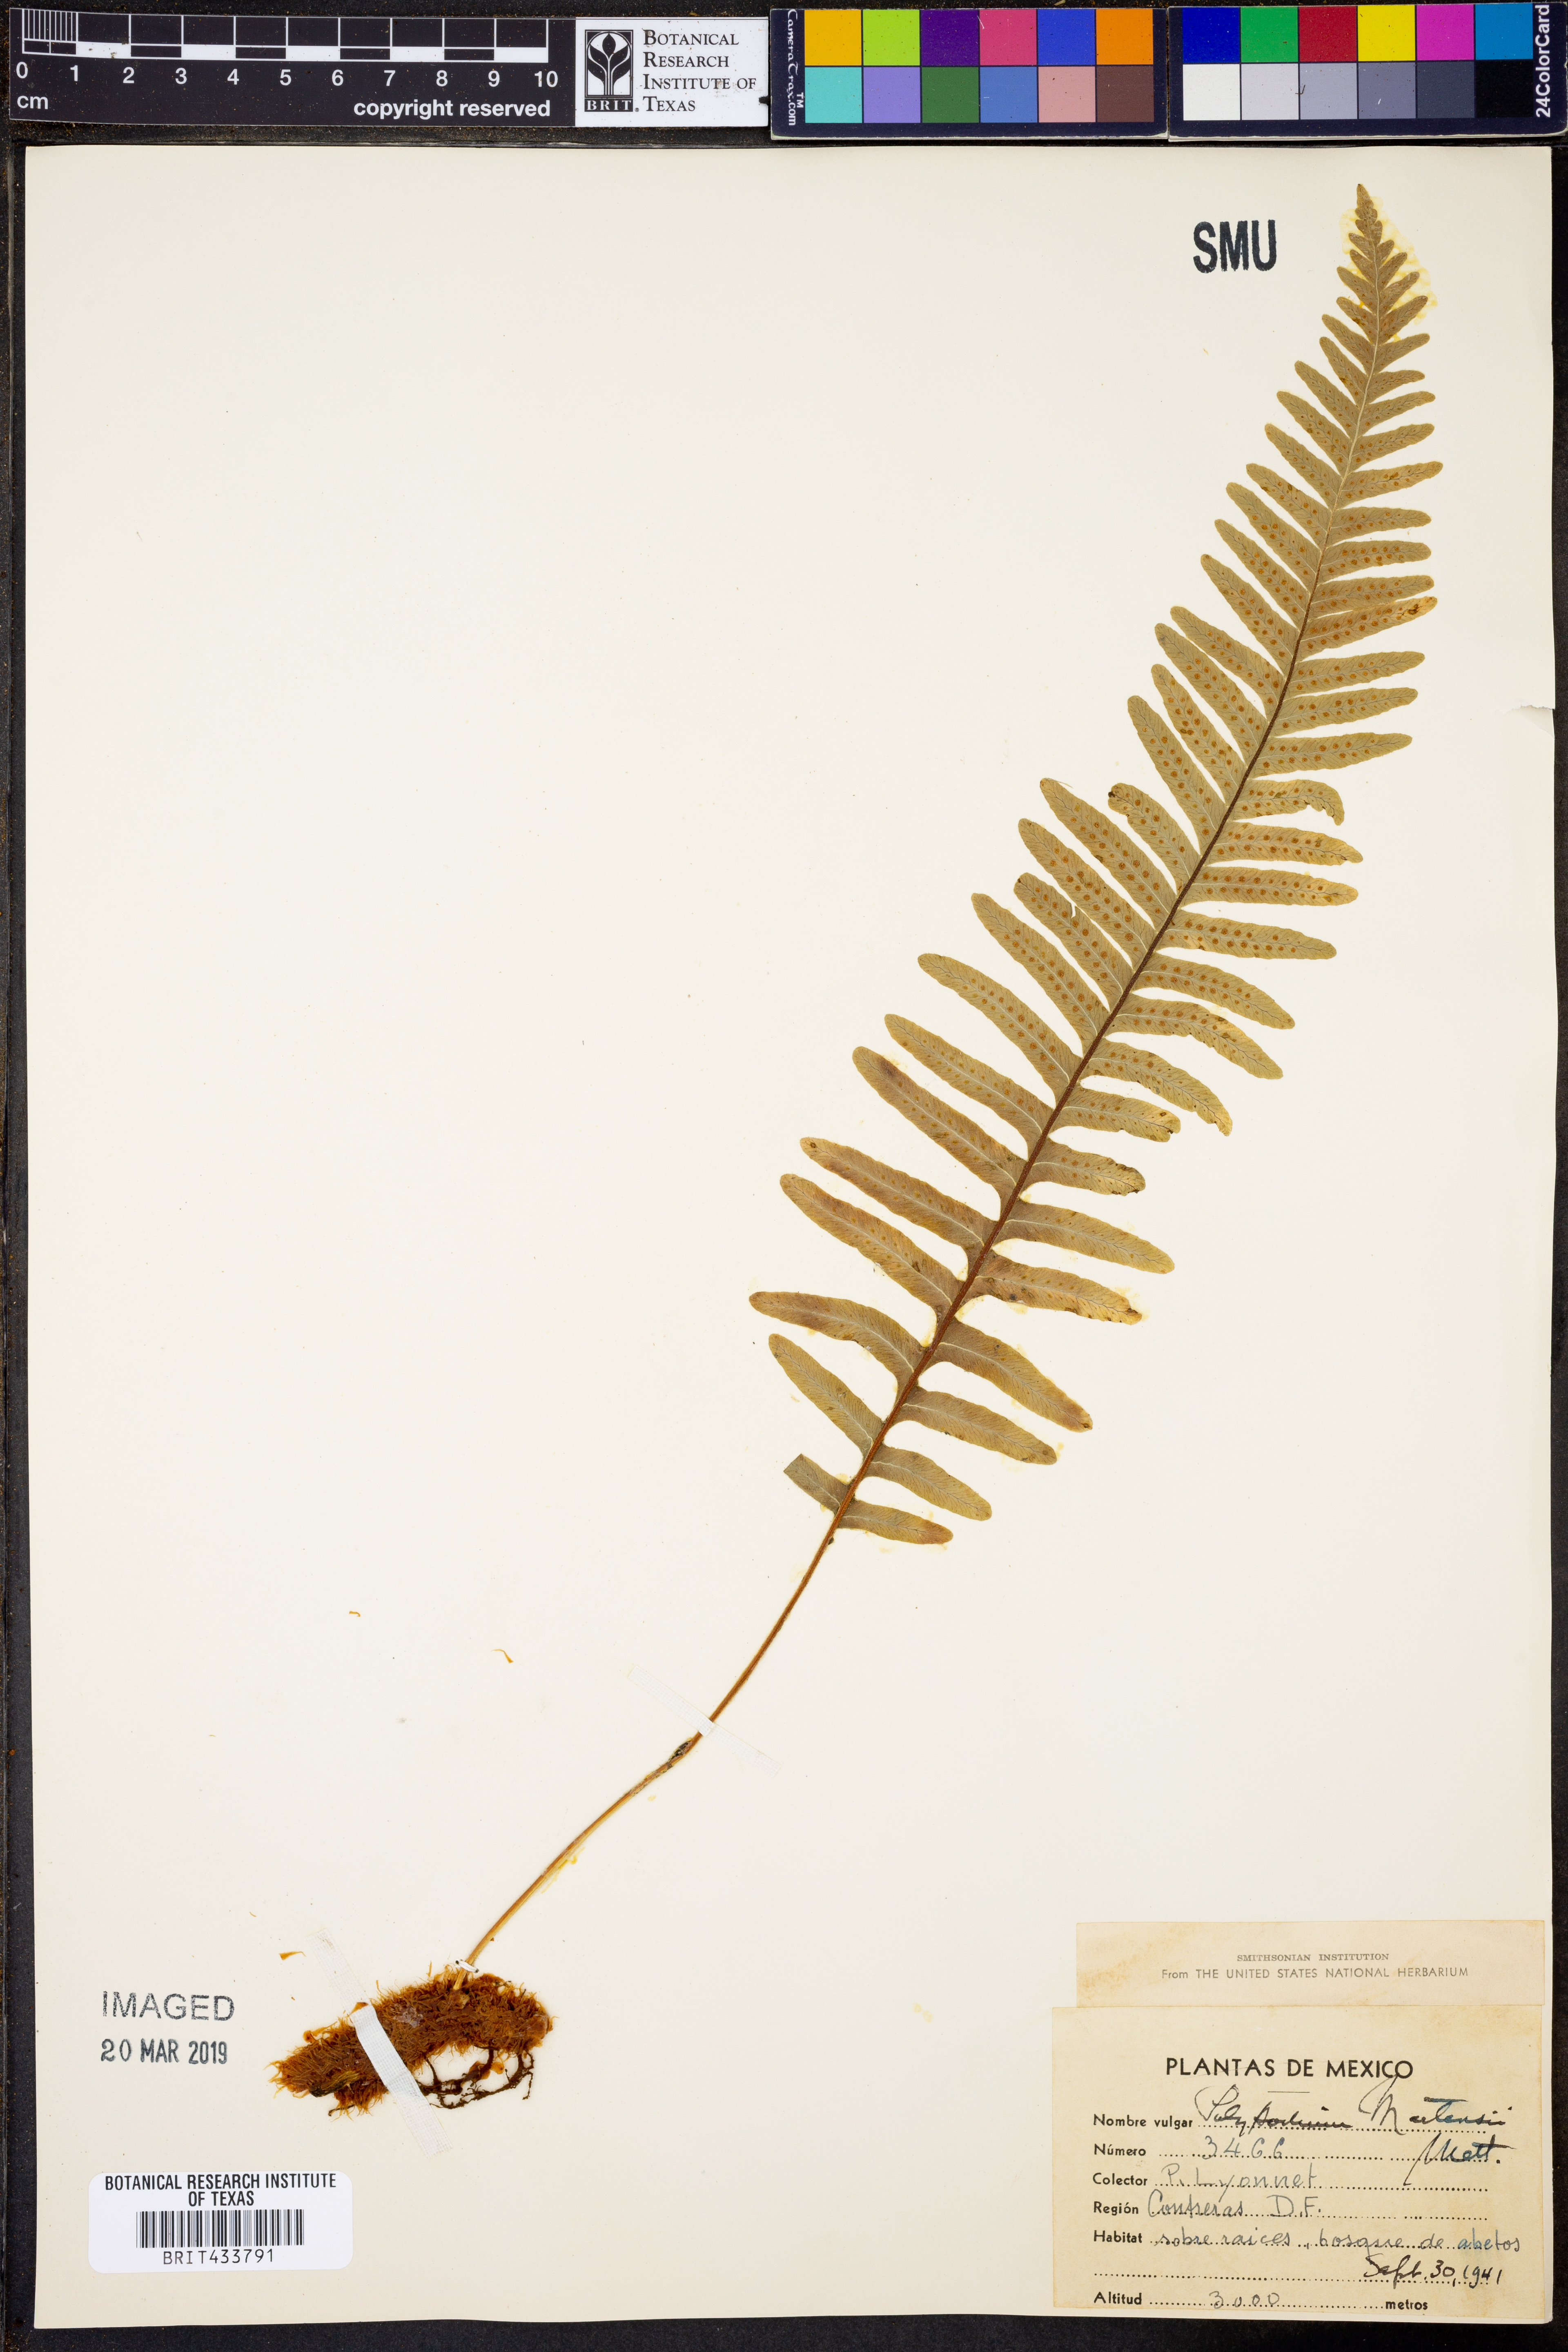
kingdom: Plantae
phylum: Tracheophyta
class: Polypodiopsida
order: Polypodiales
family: Polypodiaceae
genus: Polypodium
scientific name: Polypodium martensii
